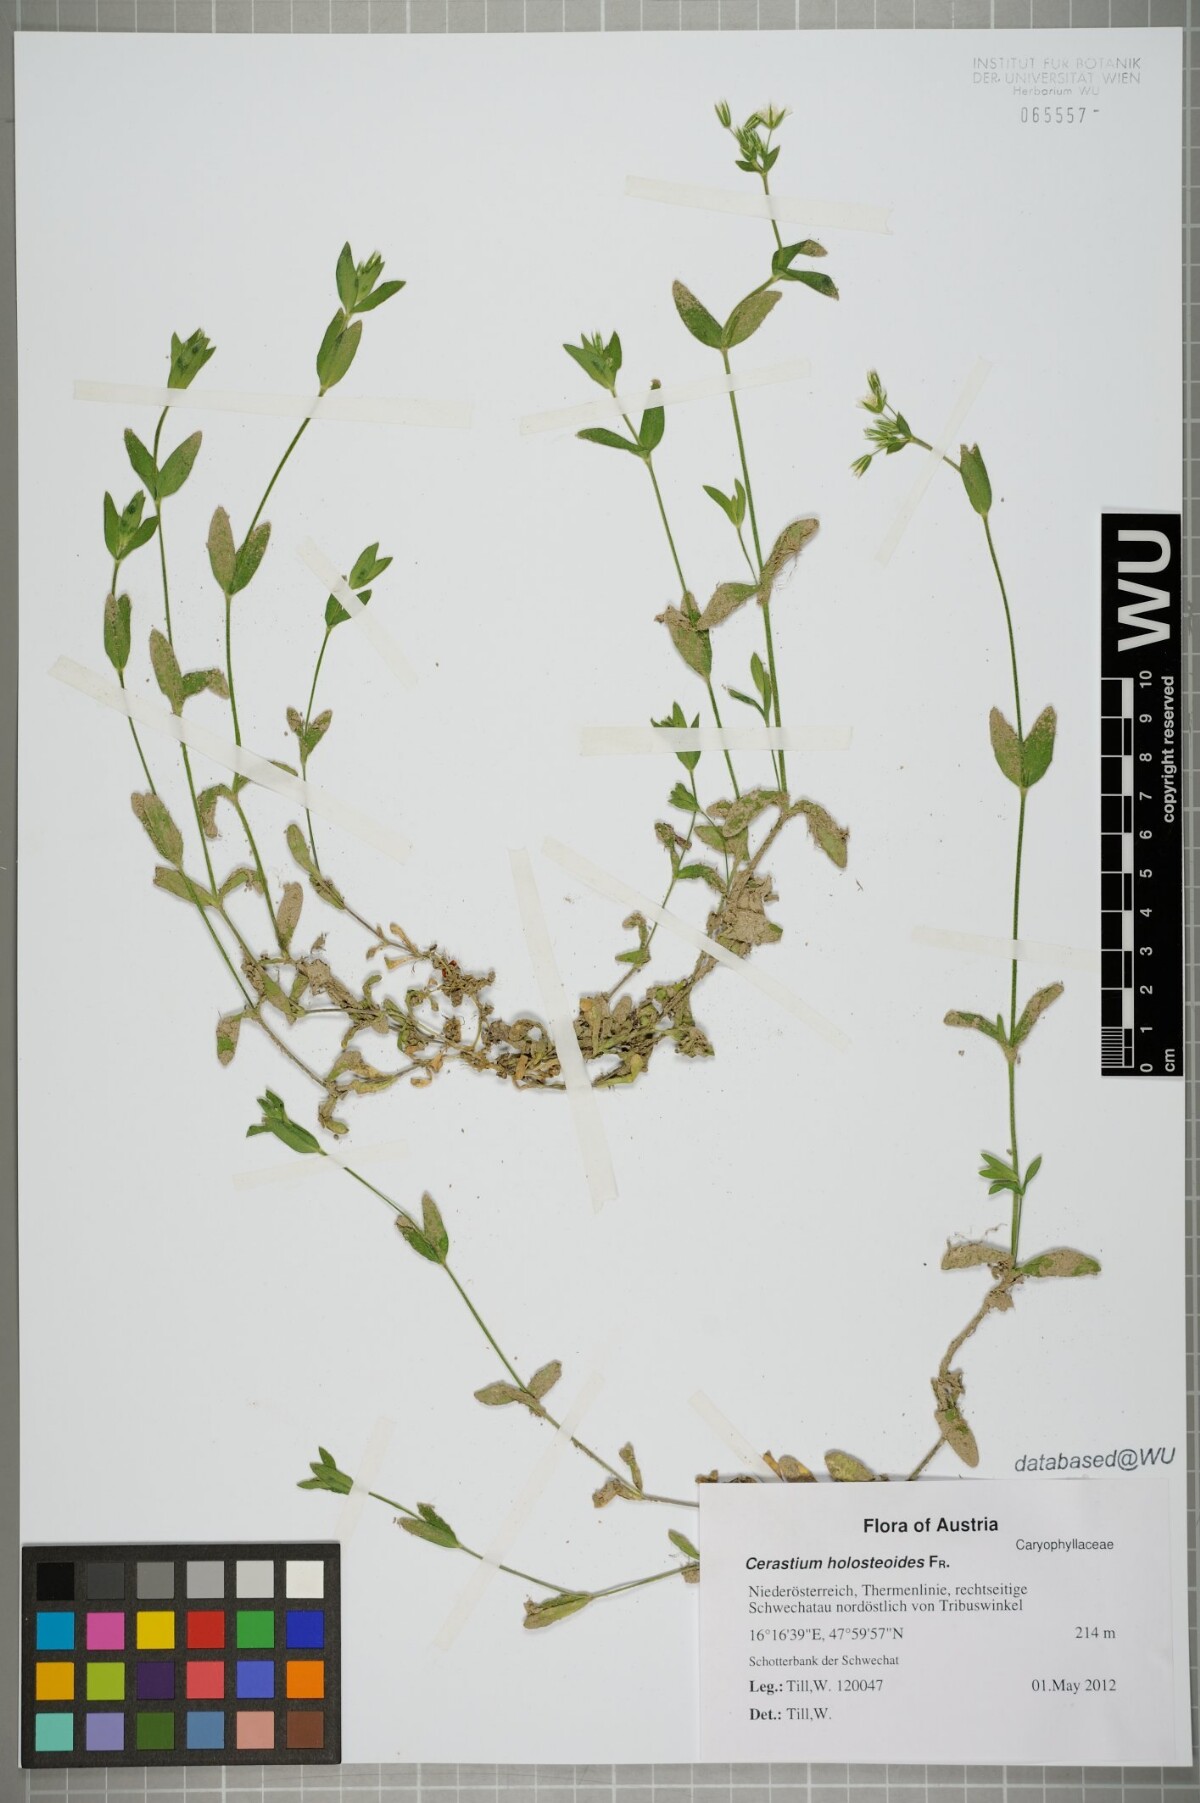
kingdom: Plantae
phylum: Tracheophyta
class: Magnoliopsida
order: Caryophyllales
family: Caryophyllaceae
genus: Cerastium
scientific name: Cerastium holosteoides
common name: Big chickweed
